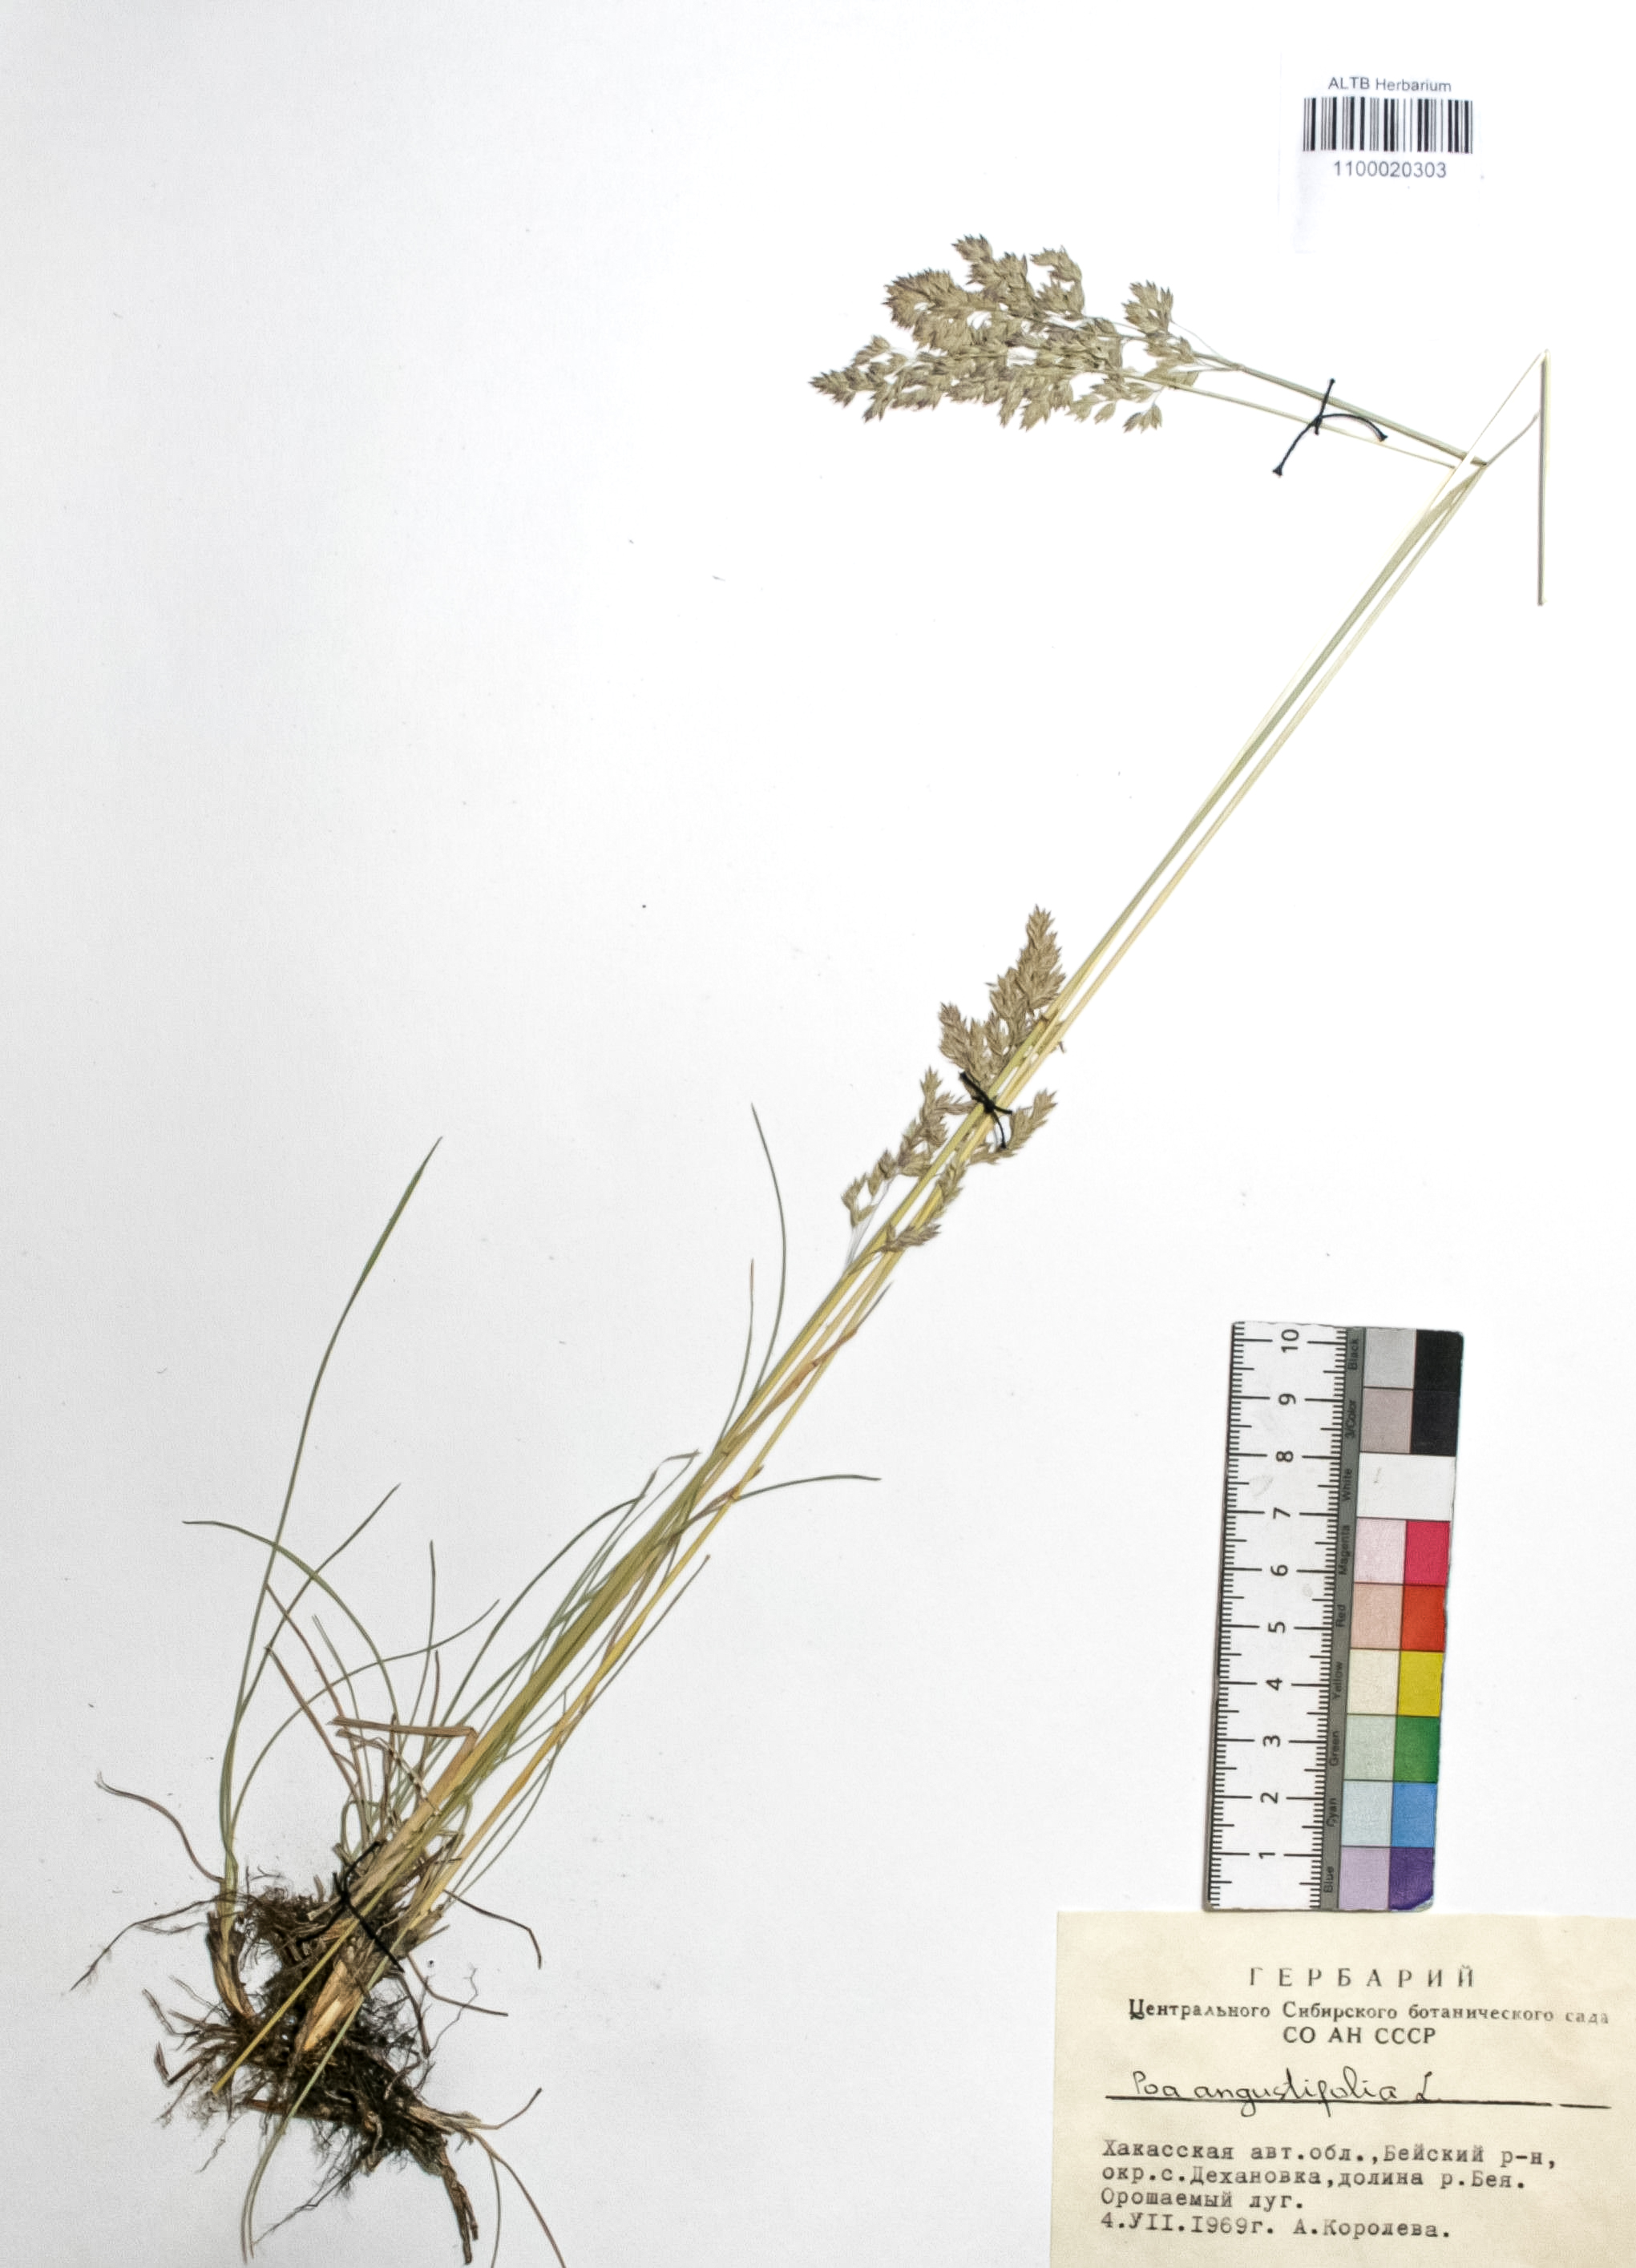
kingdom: Plantae
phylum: Tracheophyta
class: Liliopsida
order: Poales
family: Poaceae
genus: Poa
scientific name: Poa angustifolia
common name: Narrow-leaved meadow-grass
